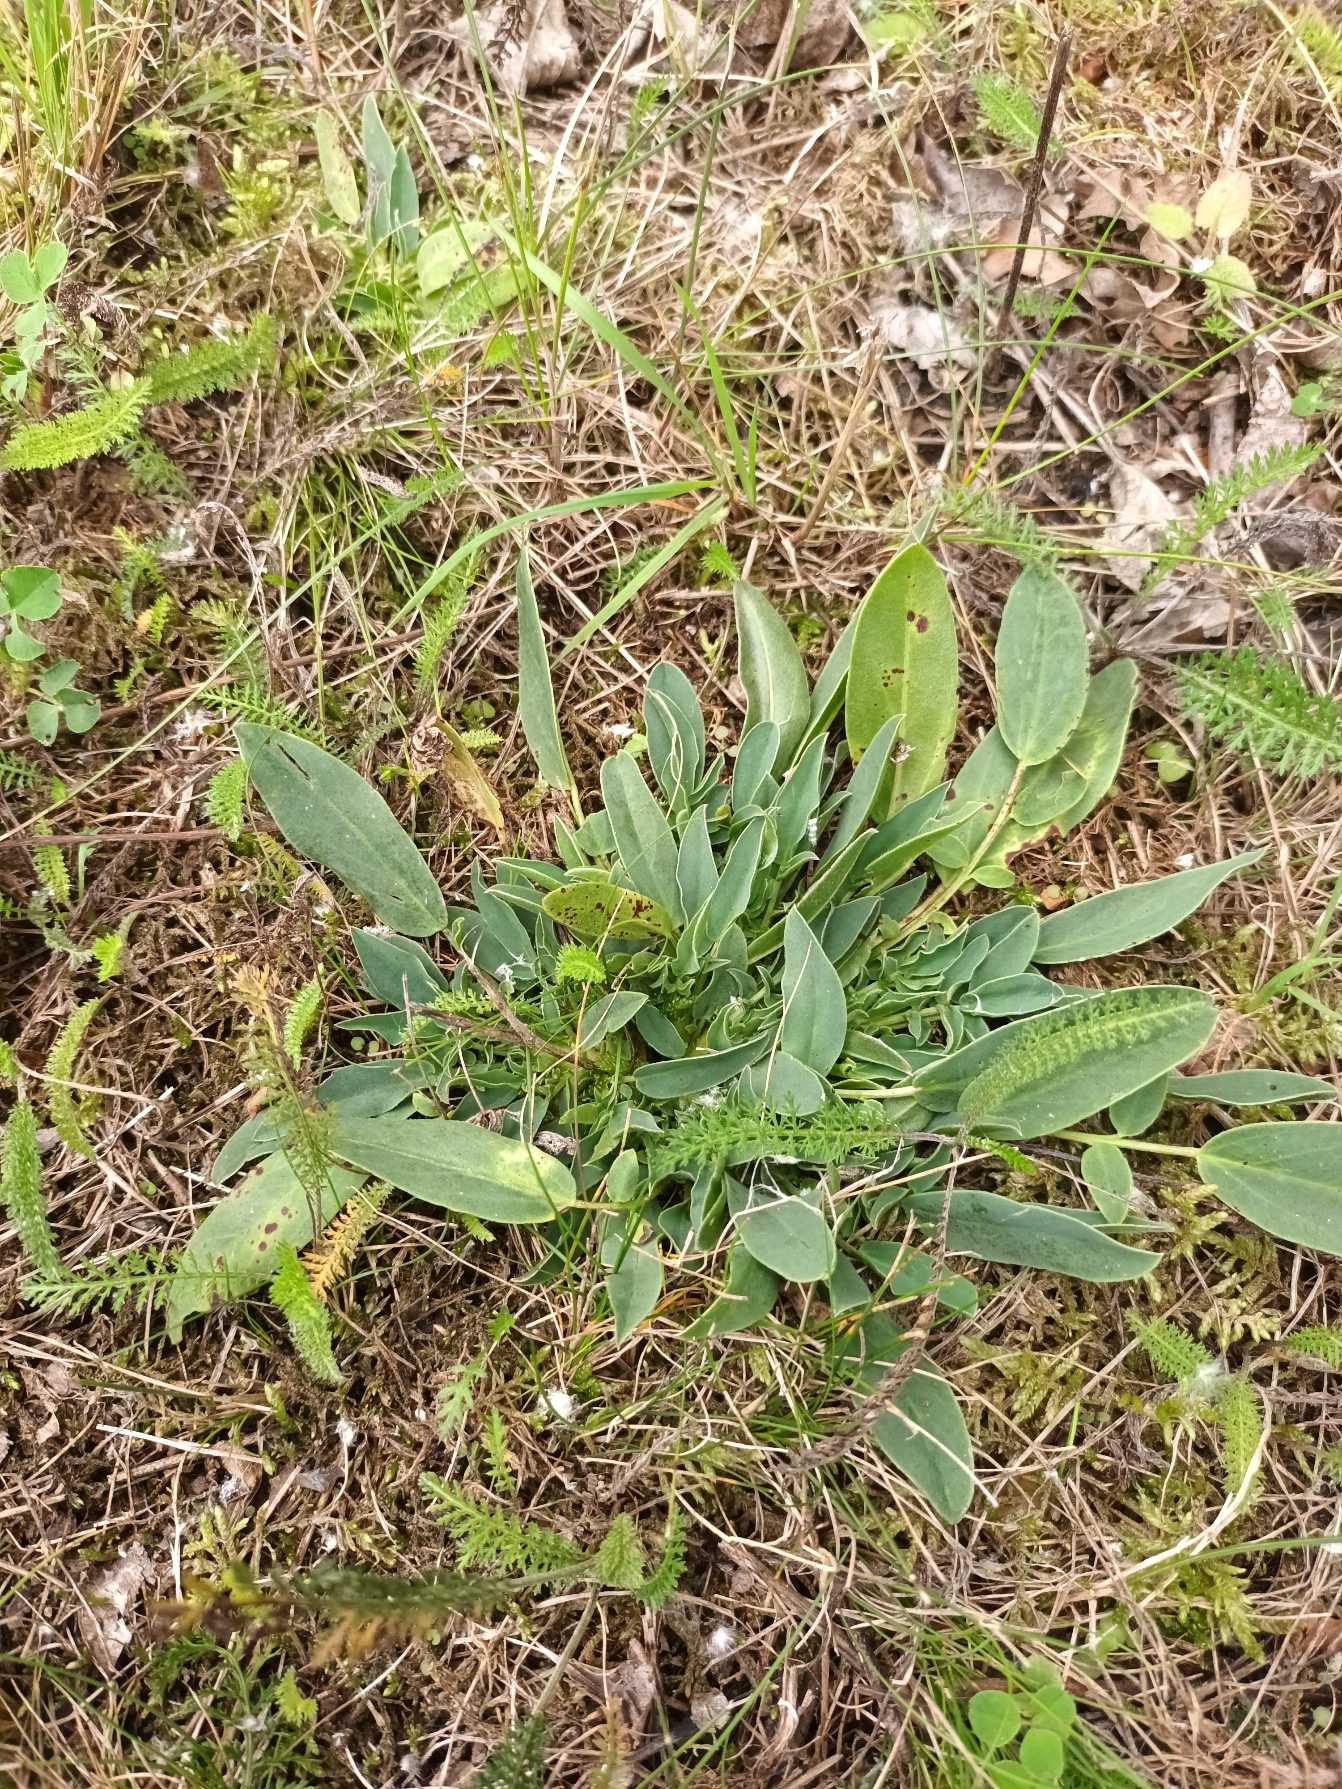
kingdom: Plantae
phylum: Tracheophyta
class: Magnoliopsida
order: Fabales
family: Fabaceae
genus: Anthyllis
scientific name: Anthyllis vulneraria
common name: Rundbælg
